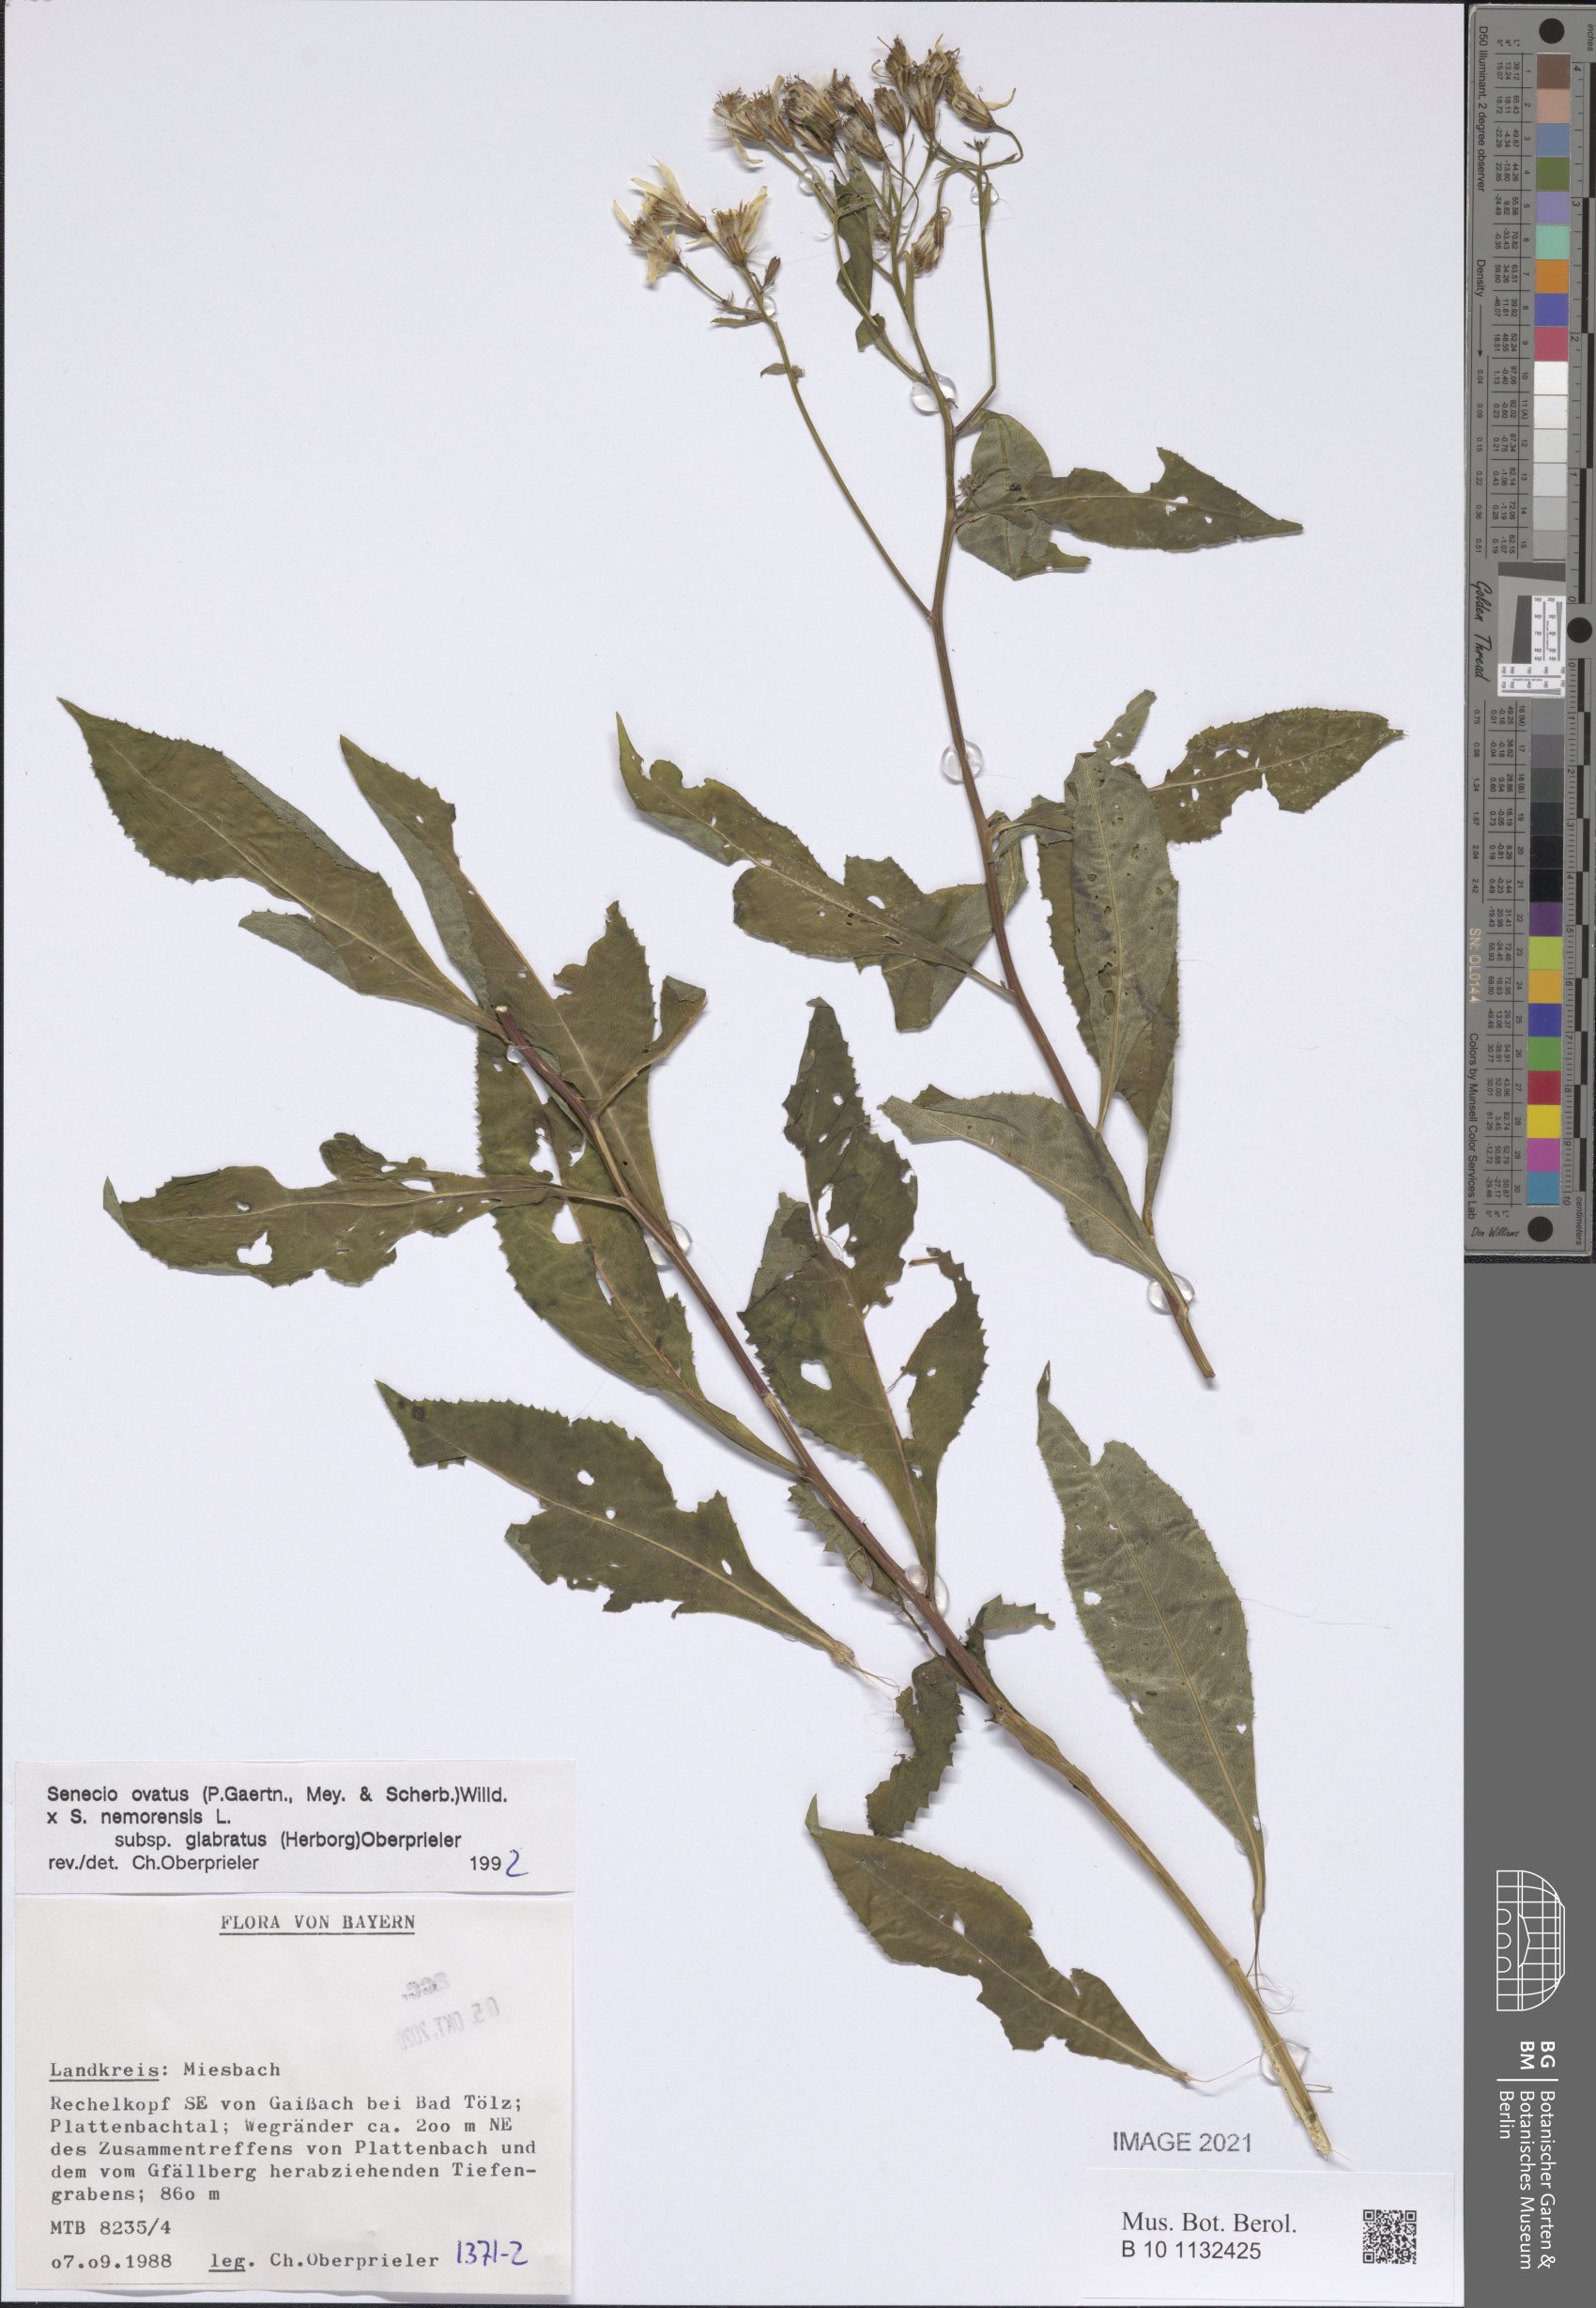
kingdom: Plantae
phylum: Tracheophyta
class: Magnoliopsida
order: Asterales
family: Asteraceae
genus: Senecio
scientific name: Senecio ovatus
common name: Wood ragwort
